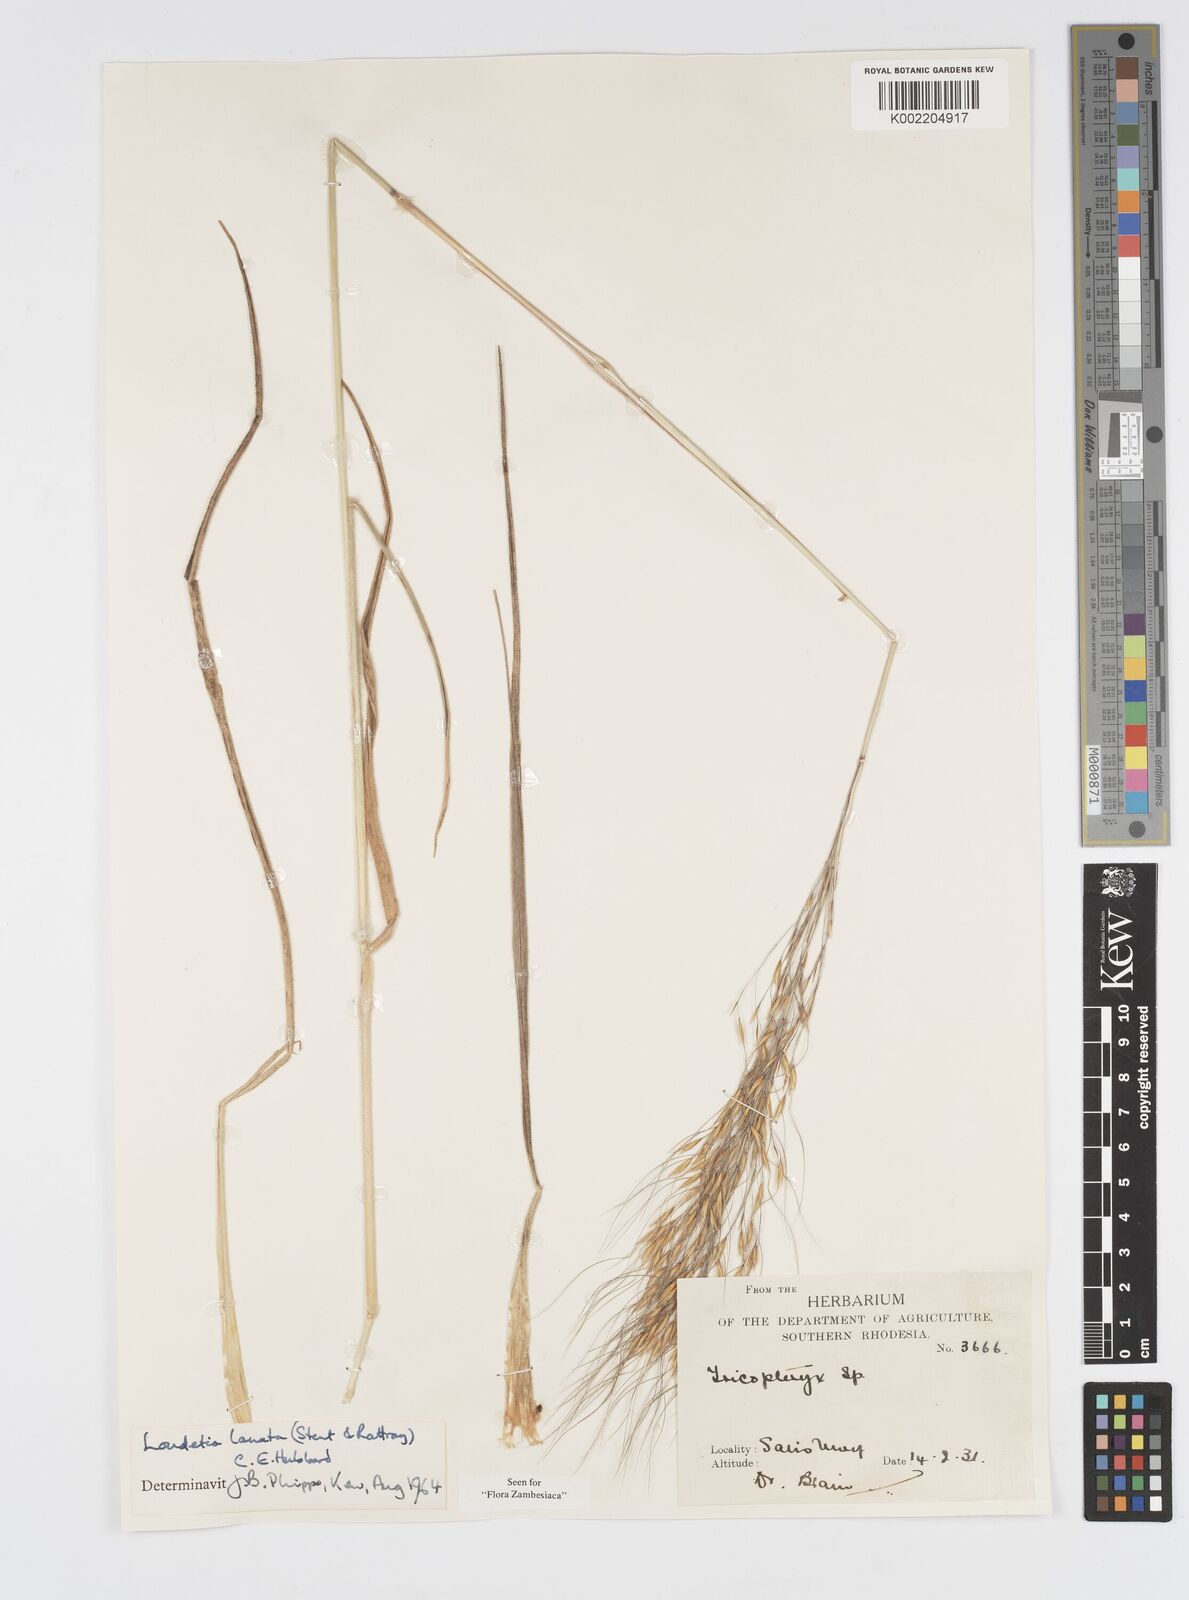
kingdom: Plantae
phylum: Tracheophyta
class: Liliopsida
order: Poales
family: Poaceae
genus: Loudetia
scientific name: Loudetia lanata
